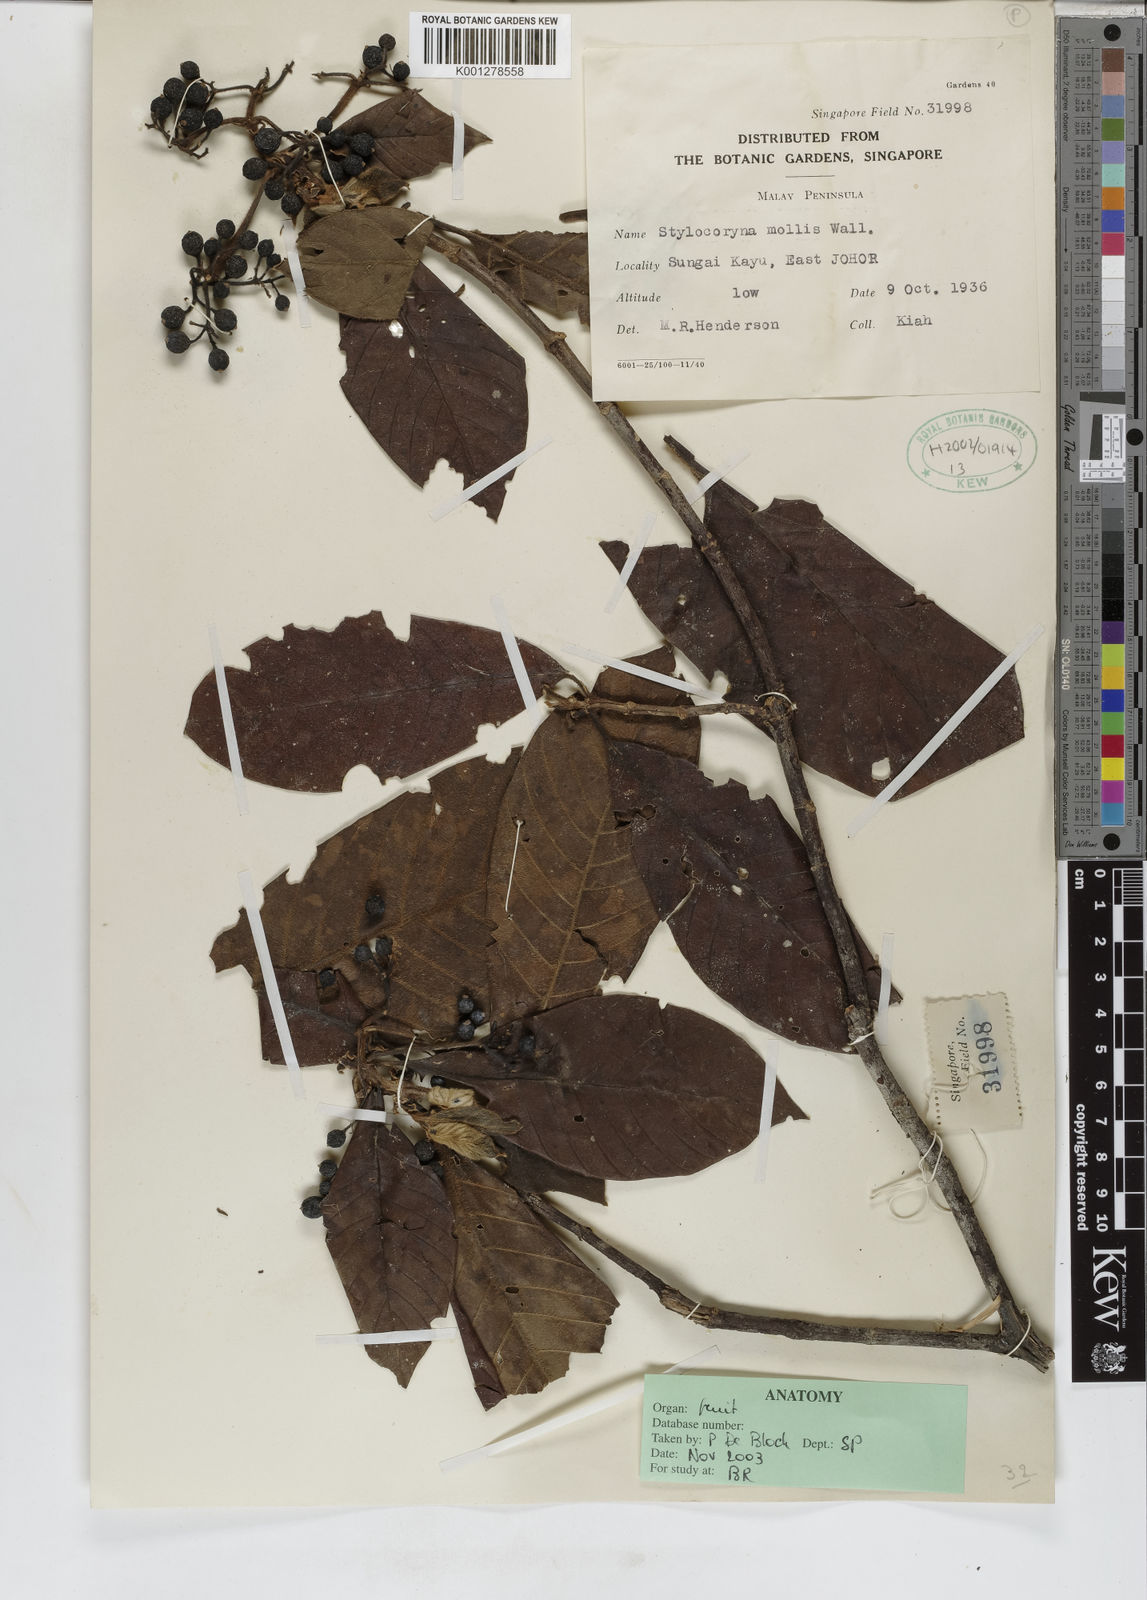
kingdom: Plantae
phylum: Tracheophyta
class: Magnoliopsida
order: Gentianales
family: Rubiaceae
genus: Tarenna
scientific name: Tarenna mollis
